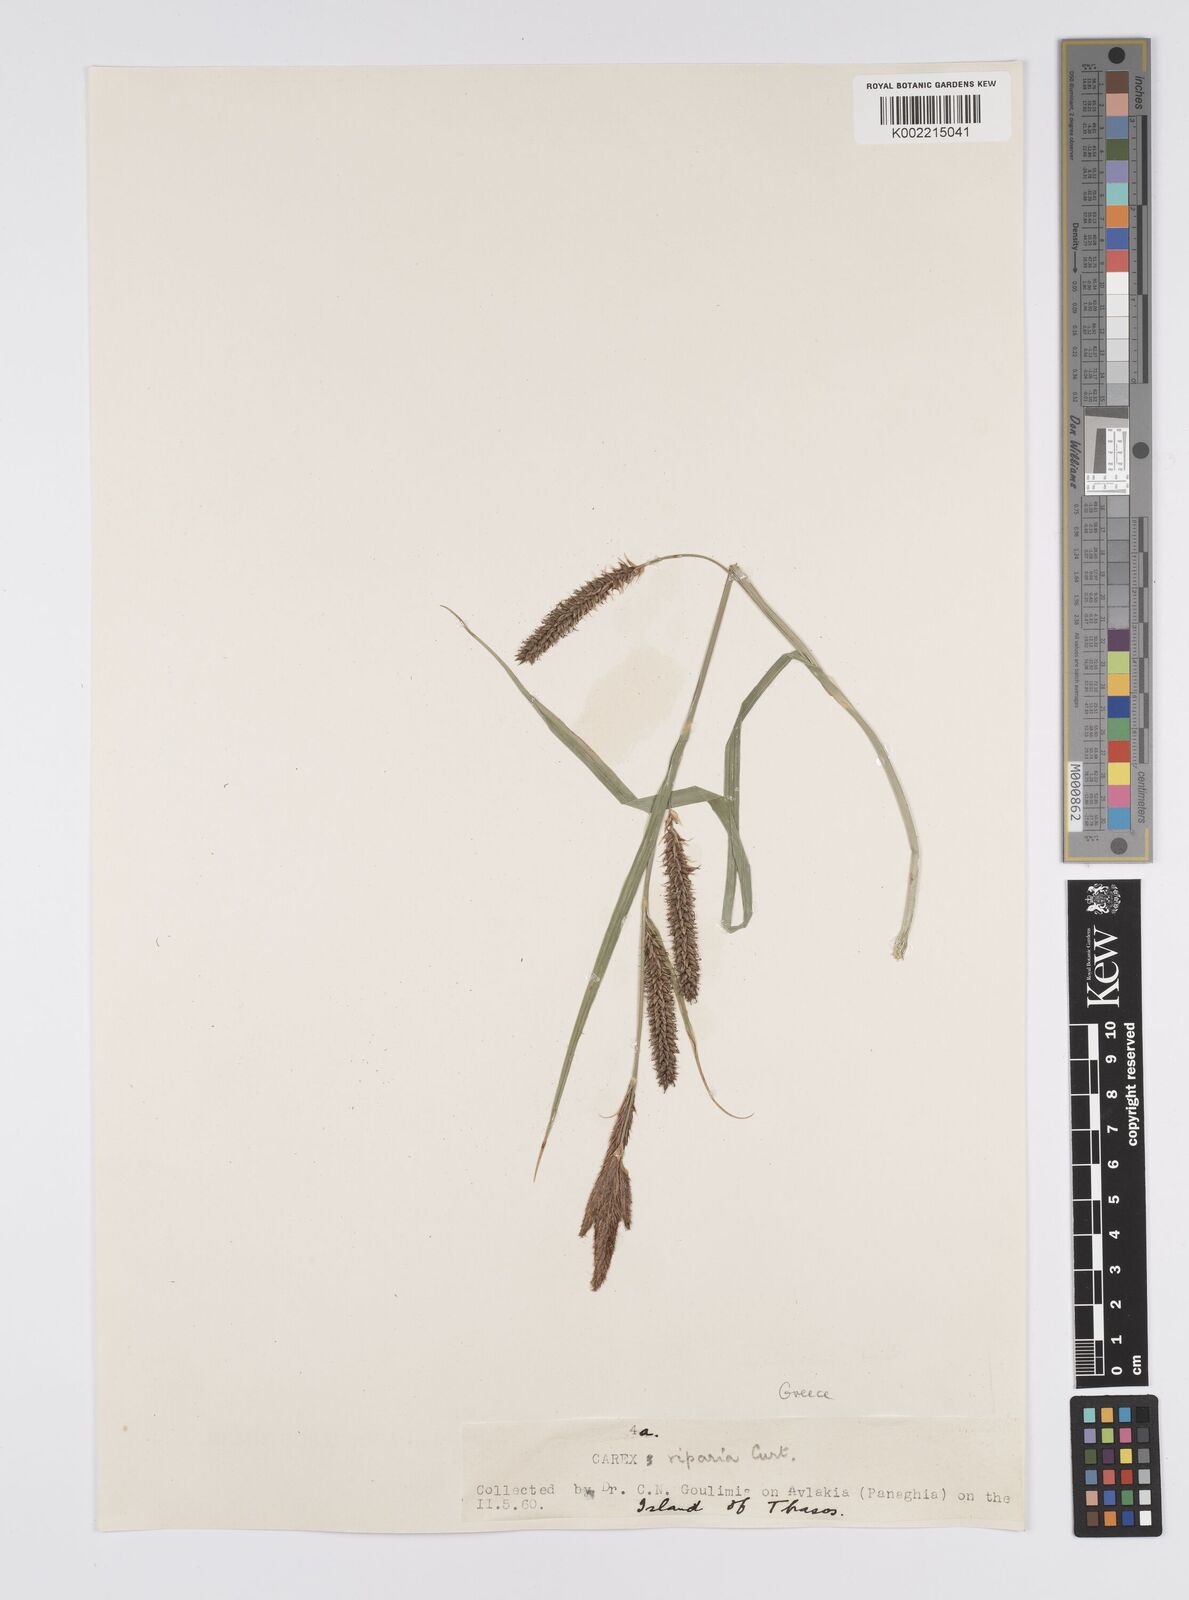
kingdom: Plantae
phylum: Tracheophyta
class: Liliopsida
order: Poales
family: Cyperaceae
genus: Carex
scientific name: Carex riparia
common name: Greater pond-sedge
